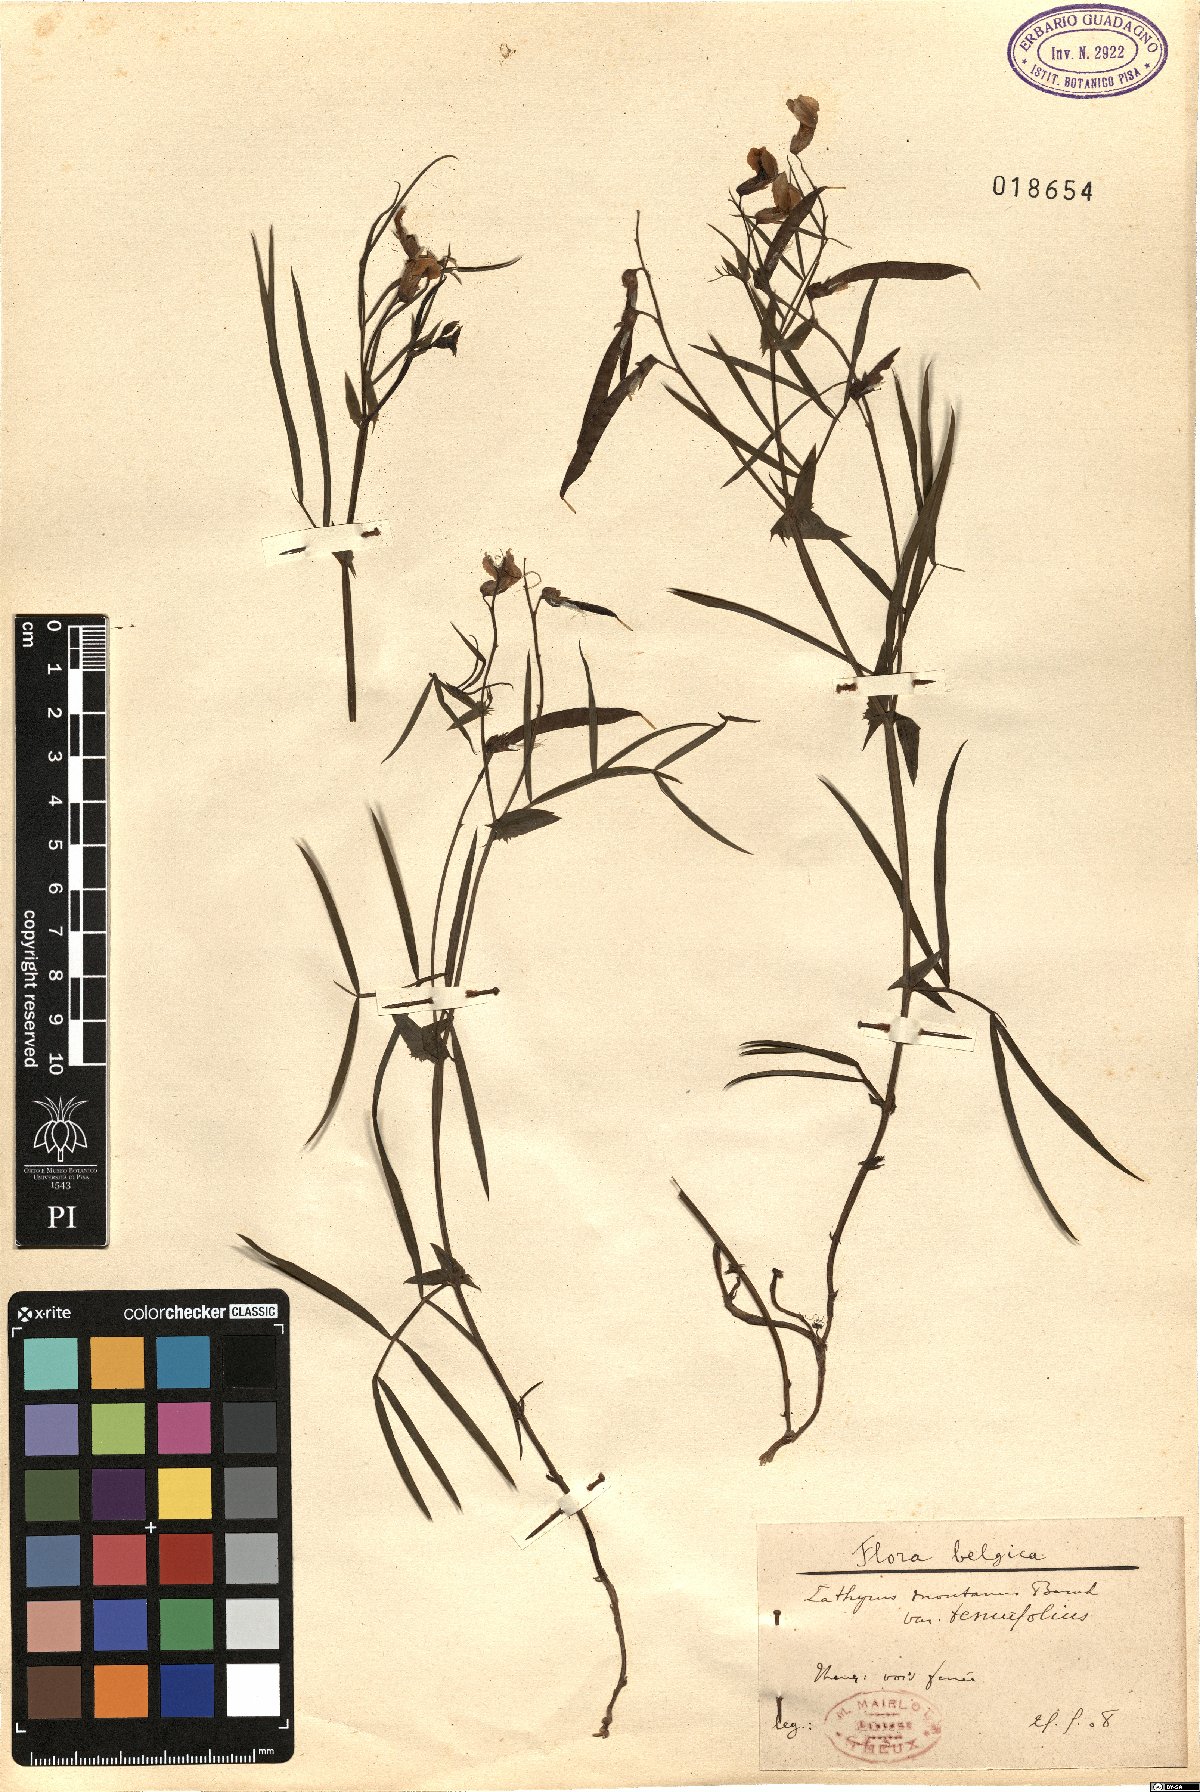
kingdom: Plantae
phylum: Tracheophyta
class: Magnoliopsida
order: Fabales
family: Fabaceae
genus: Lathyrus
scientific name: Lathyrus clymenum
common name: Spanish vetchling
